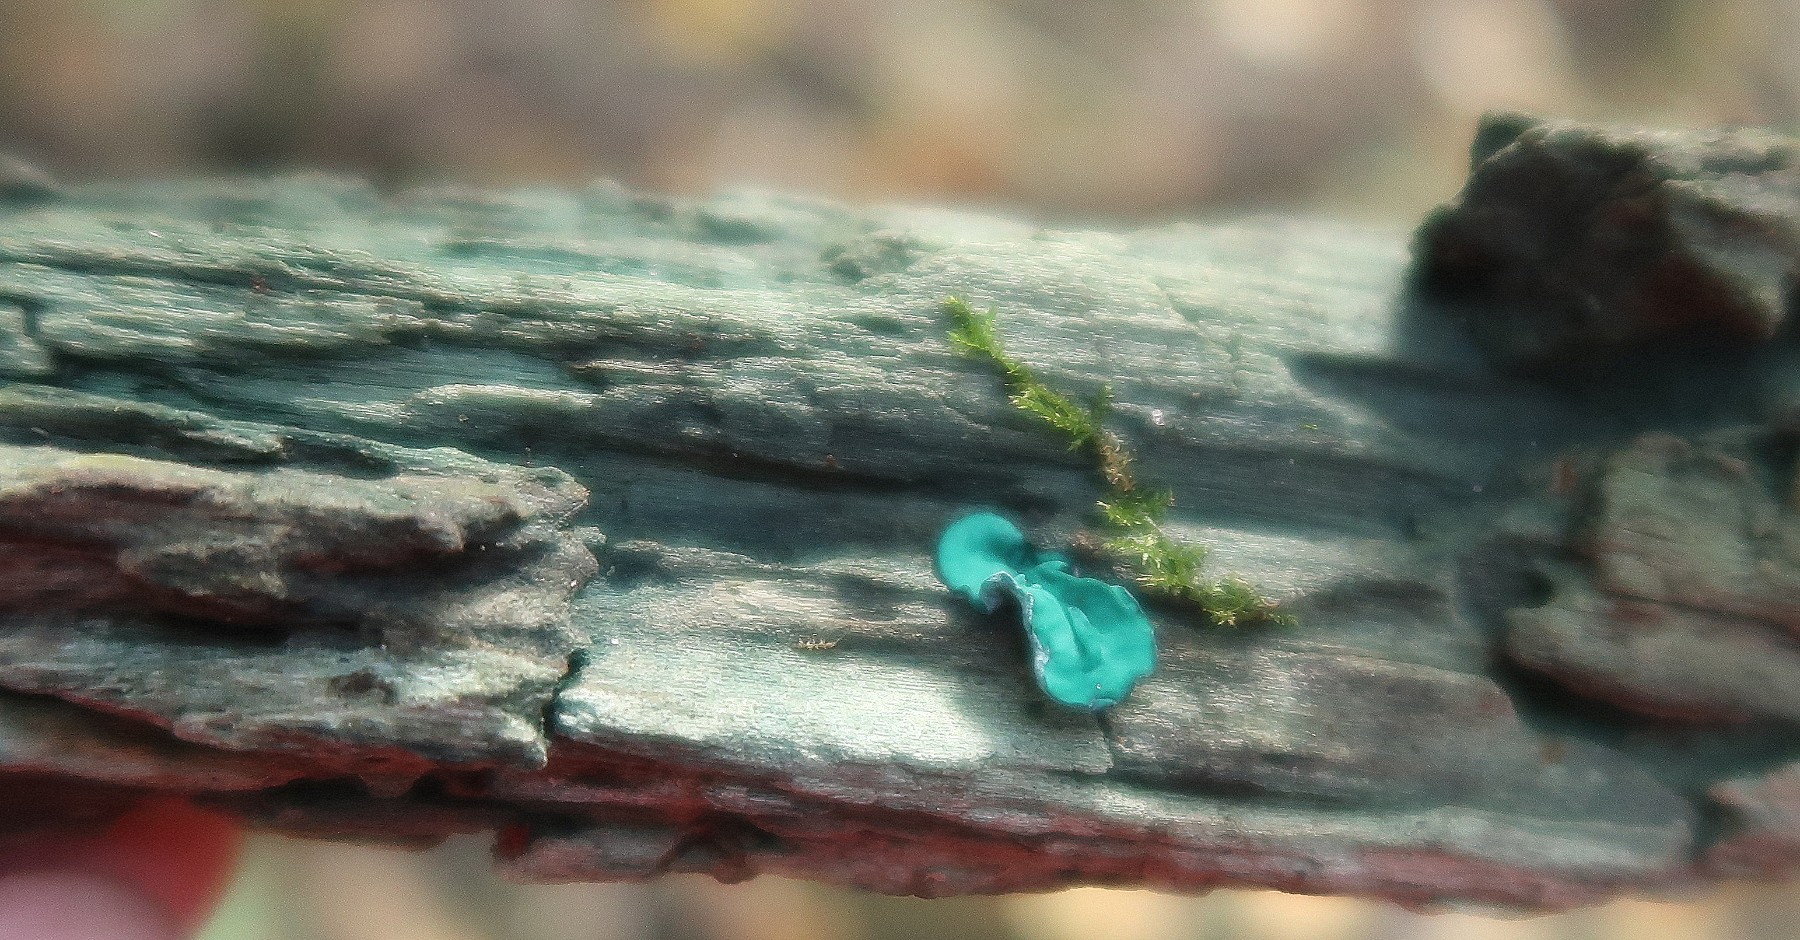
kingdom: Fungi
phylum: Ascomycota
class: Leotiomycetes
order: Helotiales
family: Chlorociboriaceae
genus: Chlorociboria
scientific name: Chlorociboria aeruginascens
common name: almindelig grønskive
